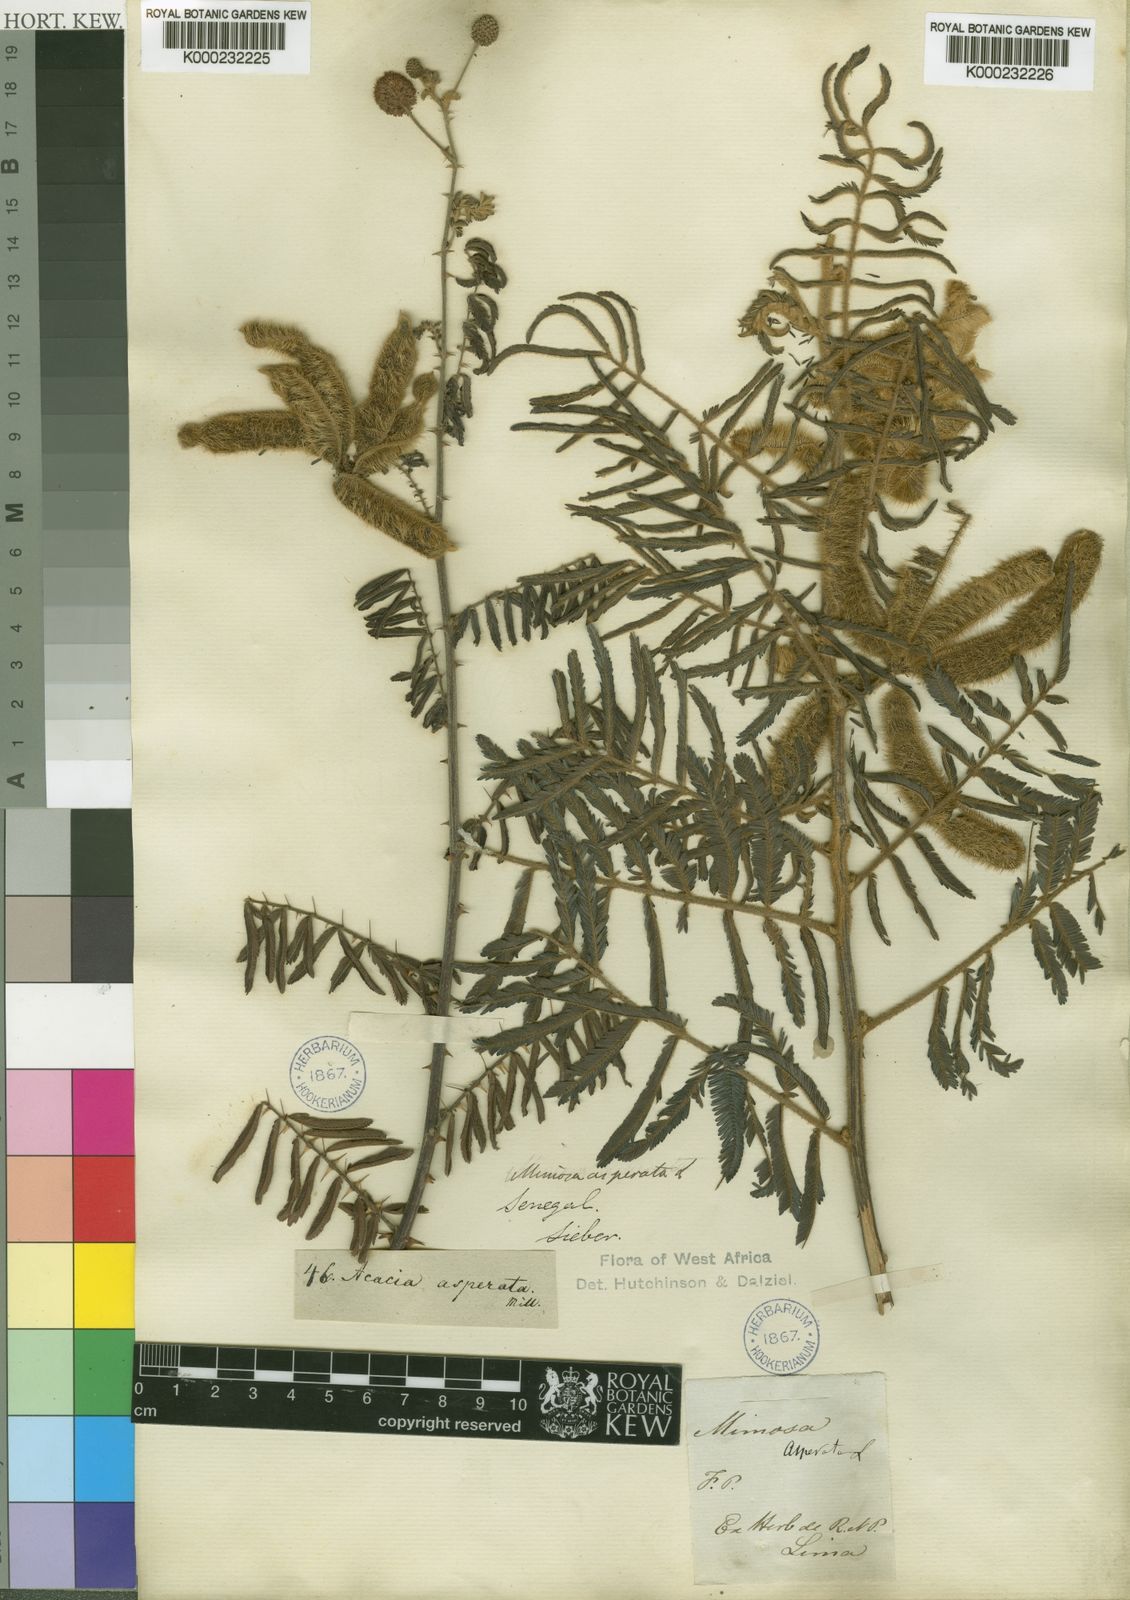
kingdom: Plantae
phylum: Tracheophyta
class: Magnoliopsida
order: Fabales
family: Fabaceae
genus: Mimosa
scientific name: Mimosa pigra
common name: Black mimosa
